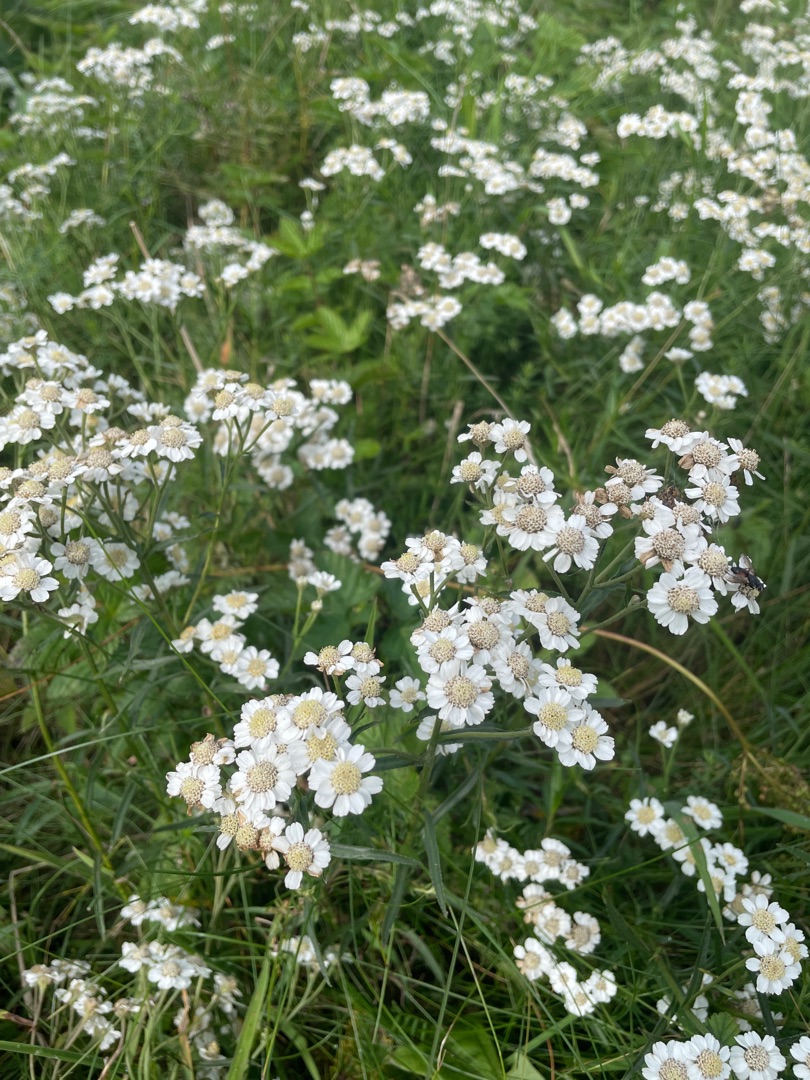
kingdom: Plantae
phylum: Tracheophyta
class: Magnoliopsida
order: Asterales
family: Asteraceae
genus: Achillea
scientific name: Achillea ptarmica
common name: Nyse-røllike
